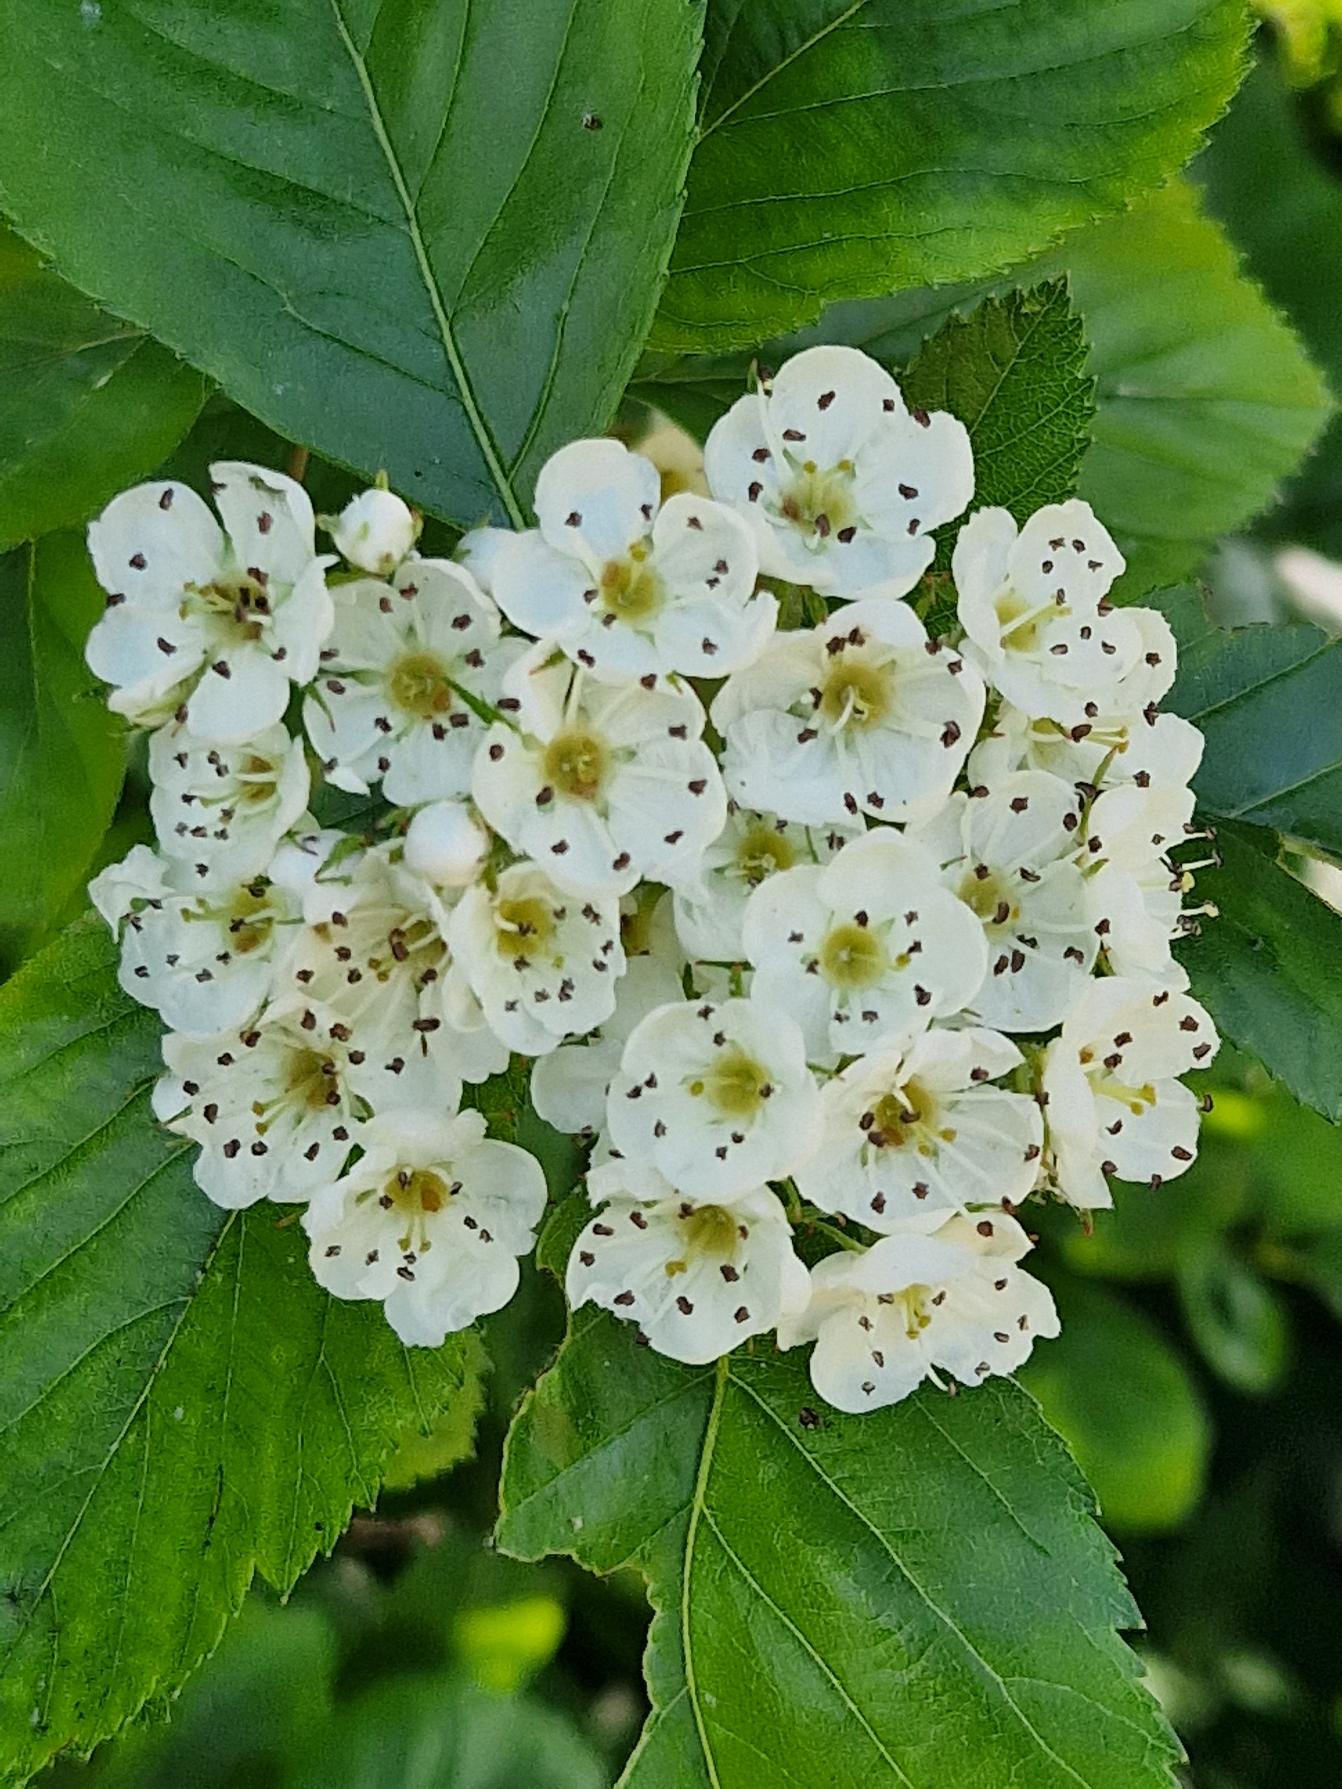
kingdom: Plantae
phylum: Tracheophyta
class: Magnoliopsida
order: Rosales
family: Rosaceae
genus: Scandosorbus
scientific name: Scandosorbus intermedia
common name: Selje-røn
